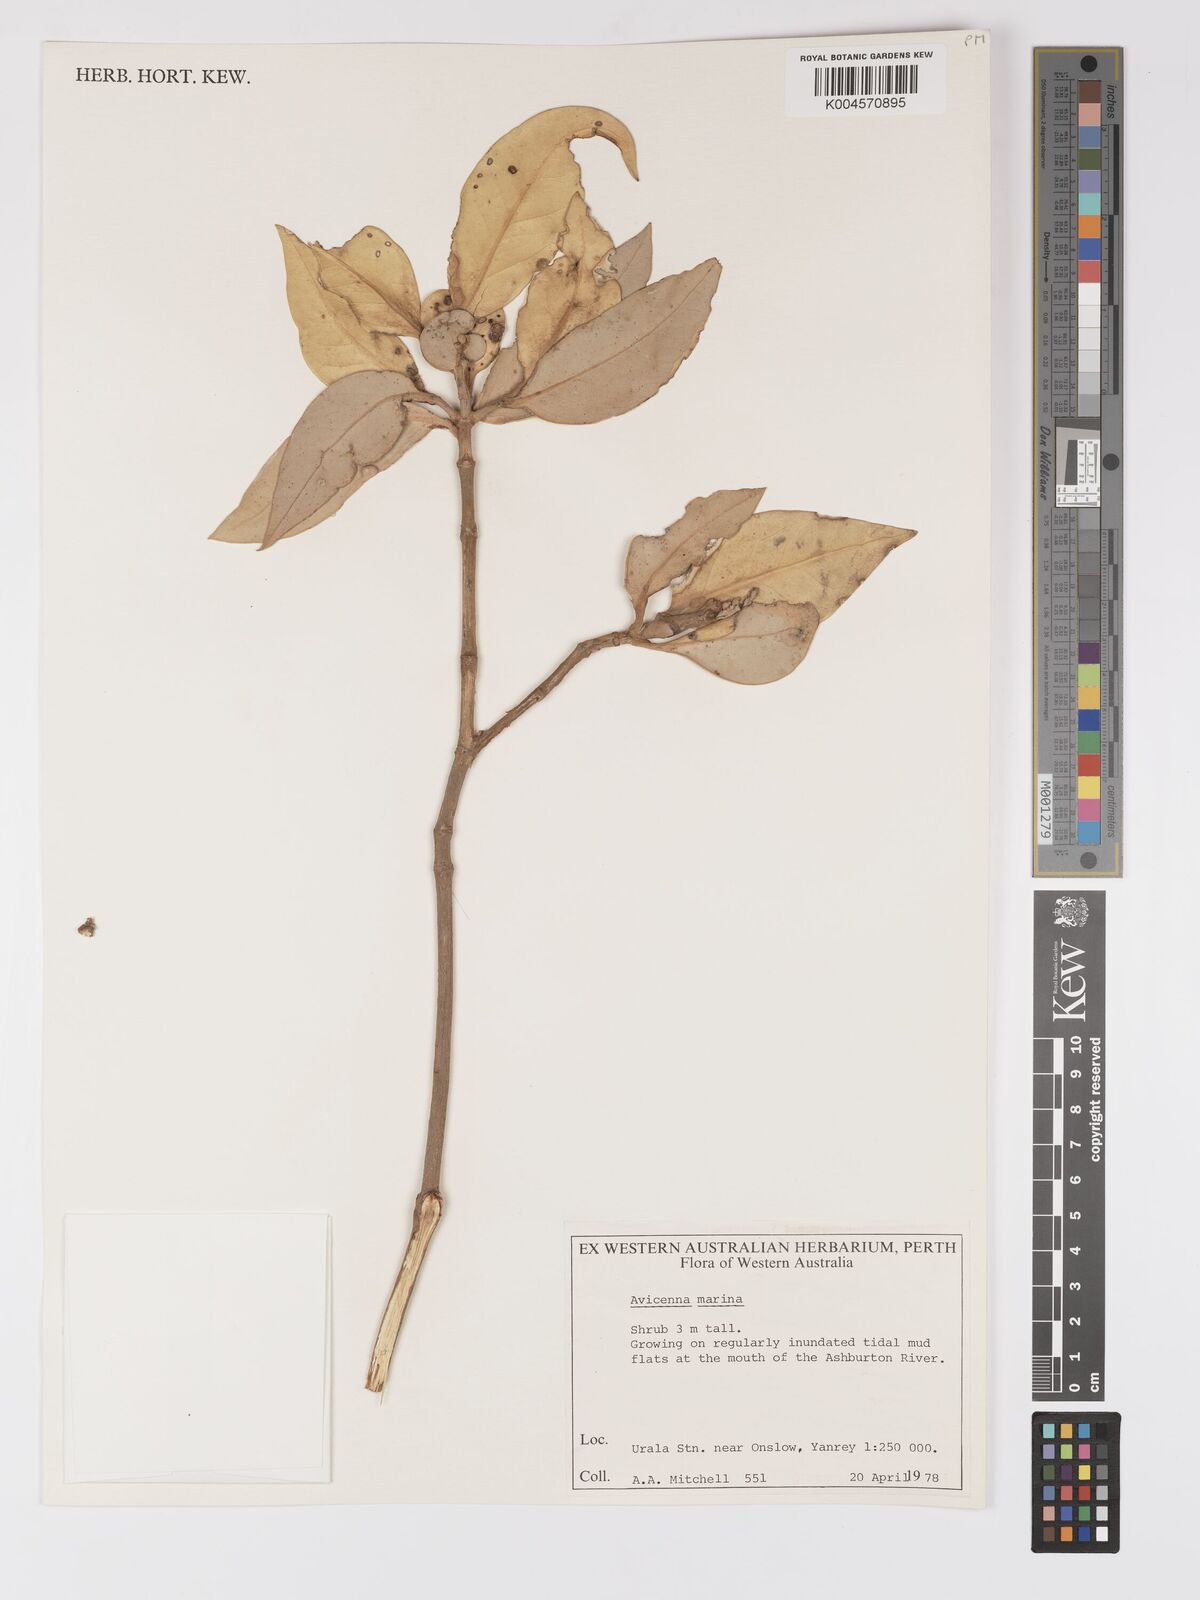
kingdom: Plantae
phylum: Tracheophyta
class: Magnoliopsida
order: Lamiales
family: Acanthaceae
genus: Avicennia
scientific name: Avicennia marina
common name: Gray mangrove
